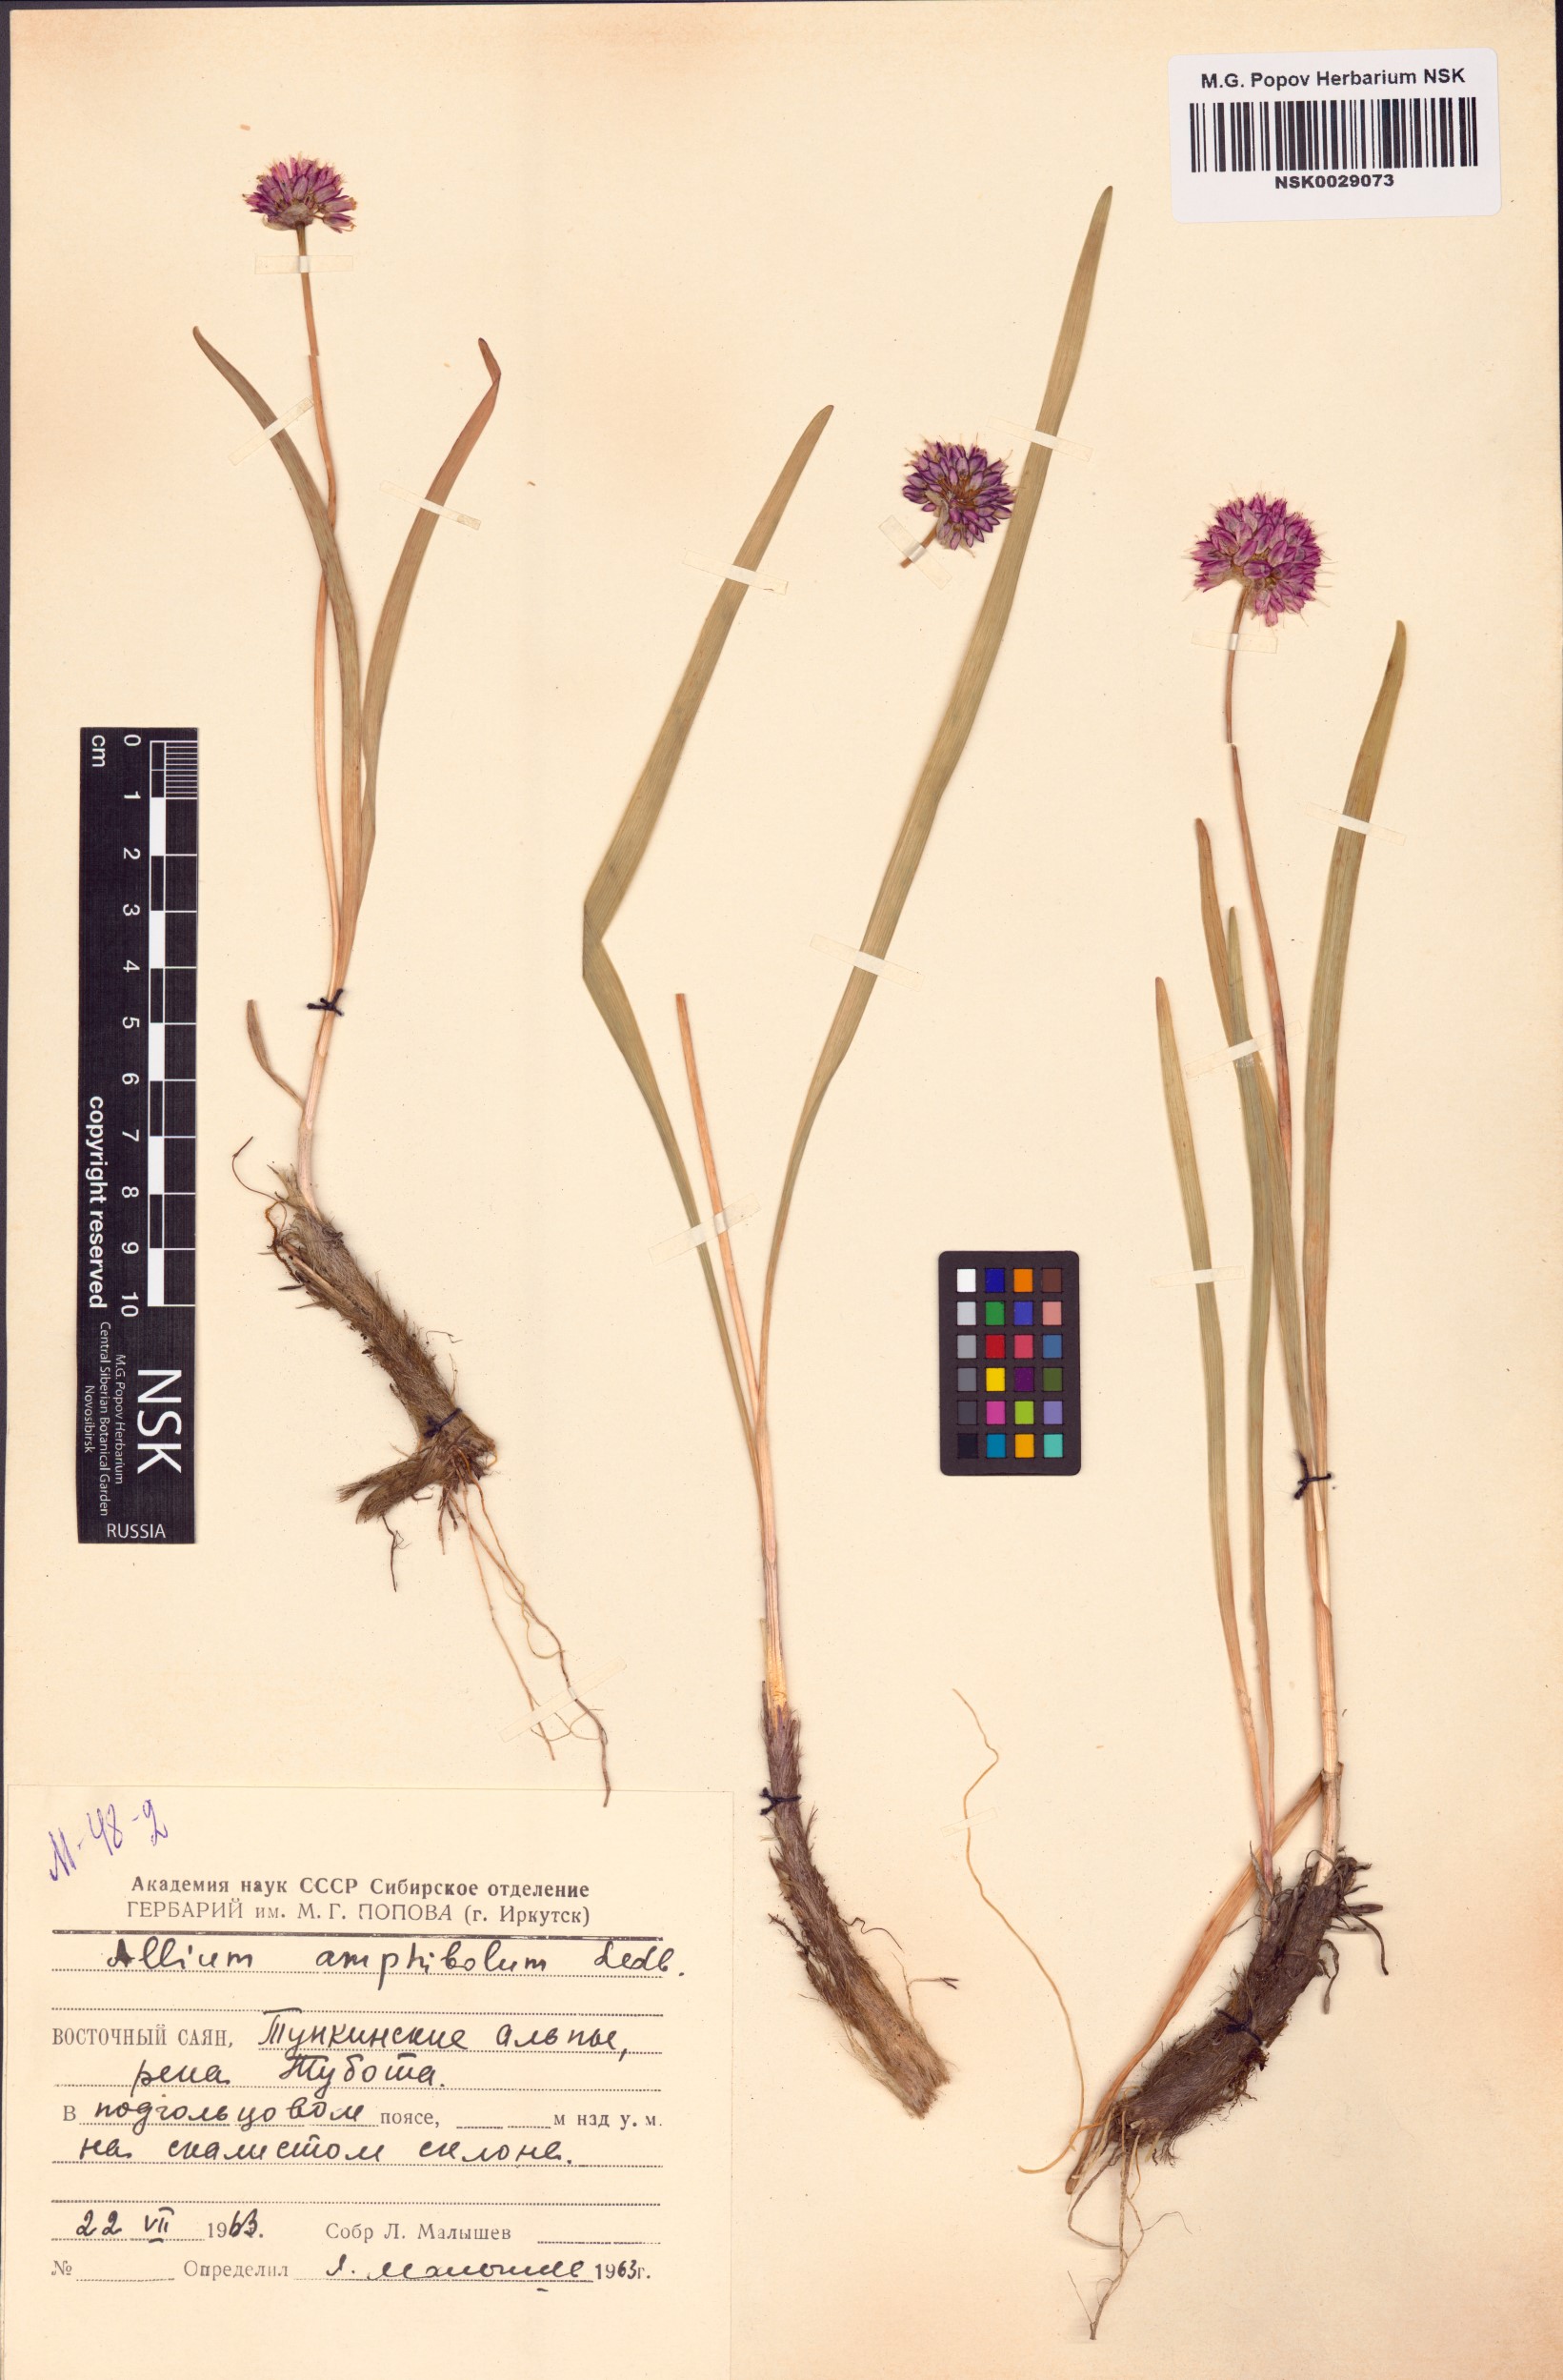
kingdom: Plantae
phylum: Tracheophyta
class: Liliopsida
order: Asparagales
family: Amaryllidaceae
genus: Allium
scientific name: Allium amphibolum
